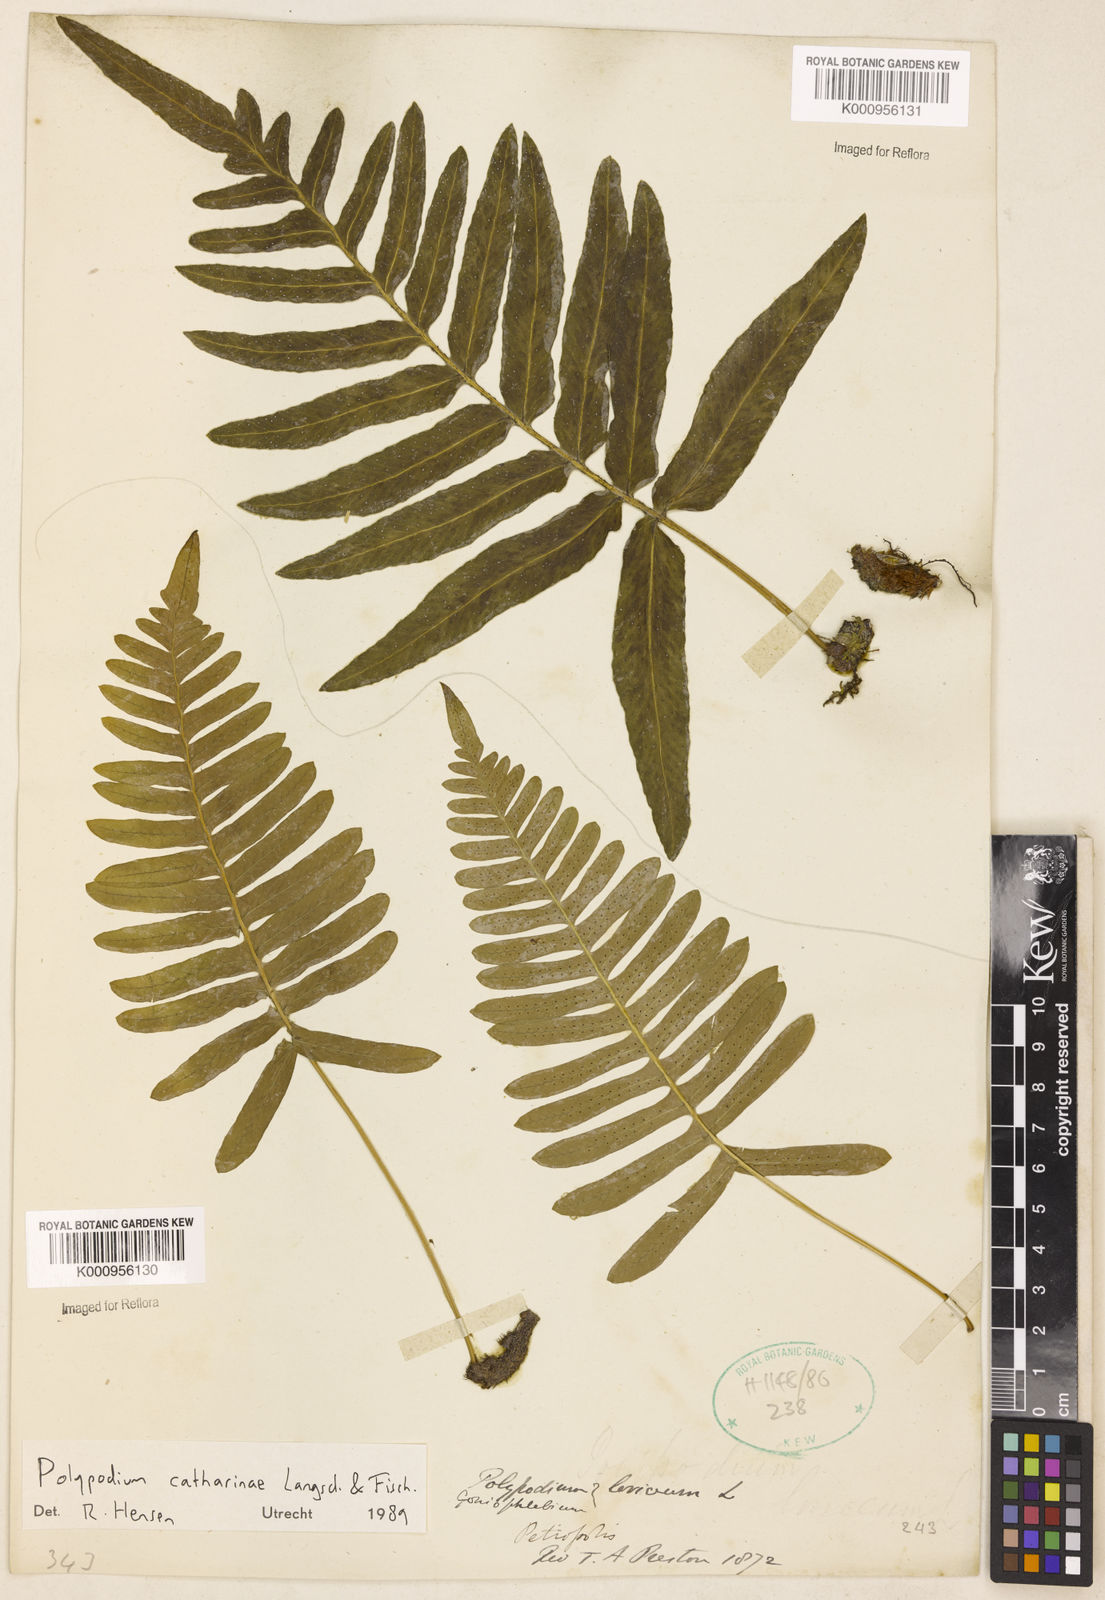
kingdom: Plantae
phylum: Tracheophyta
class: Polypodiopsida
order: Polypodiales
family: Polypodiaceae
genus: Serpocaulon
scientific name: Serpocaulon catharinae
